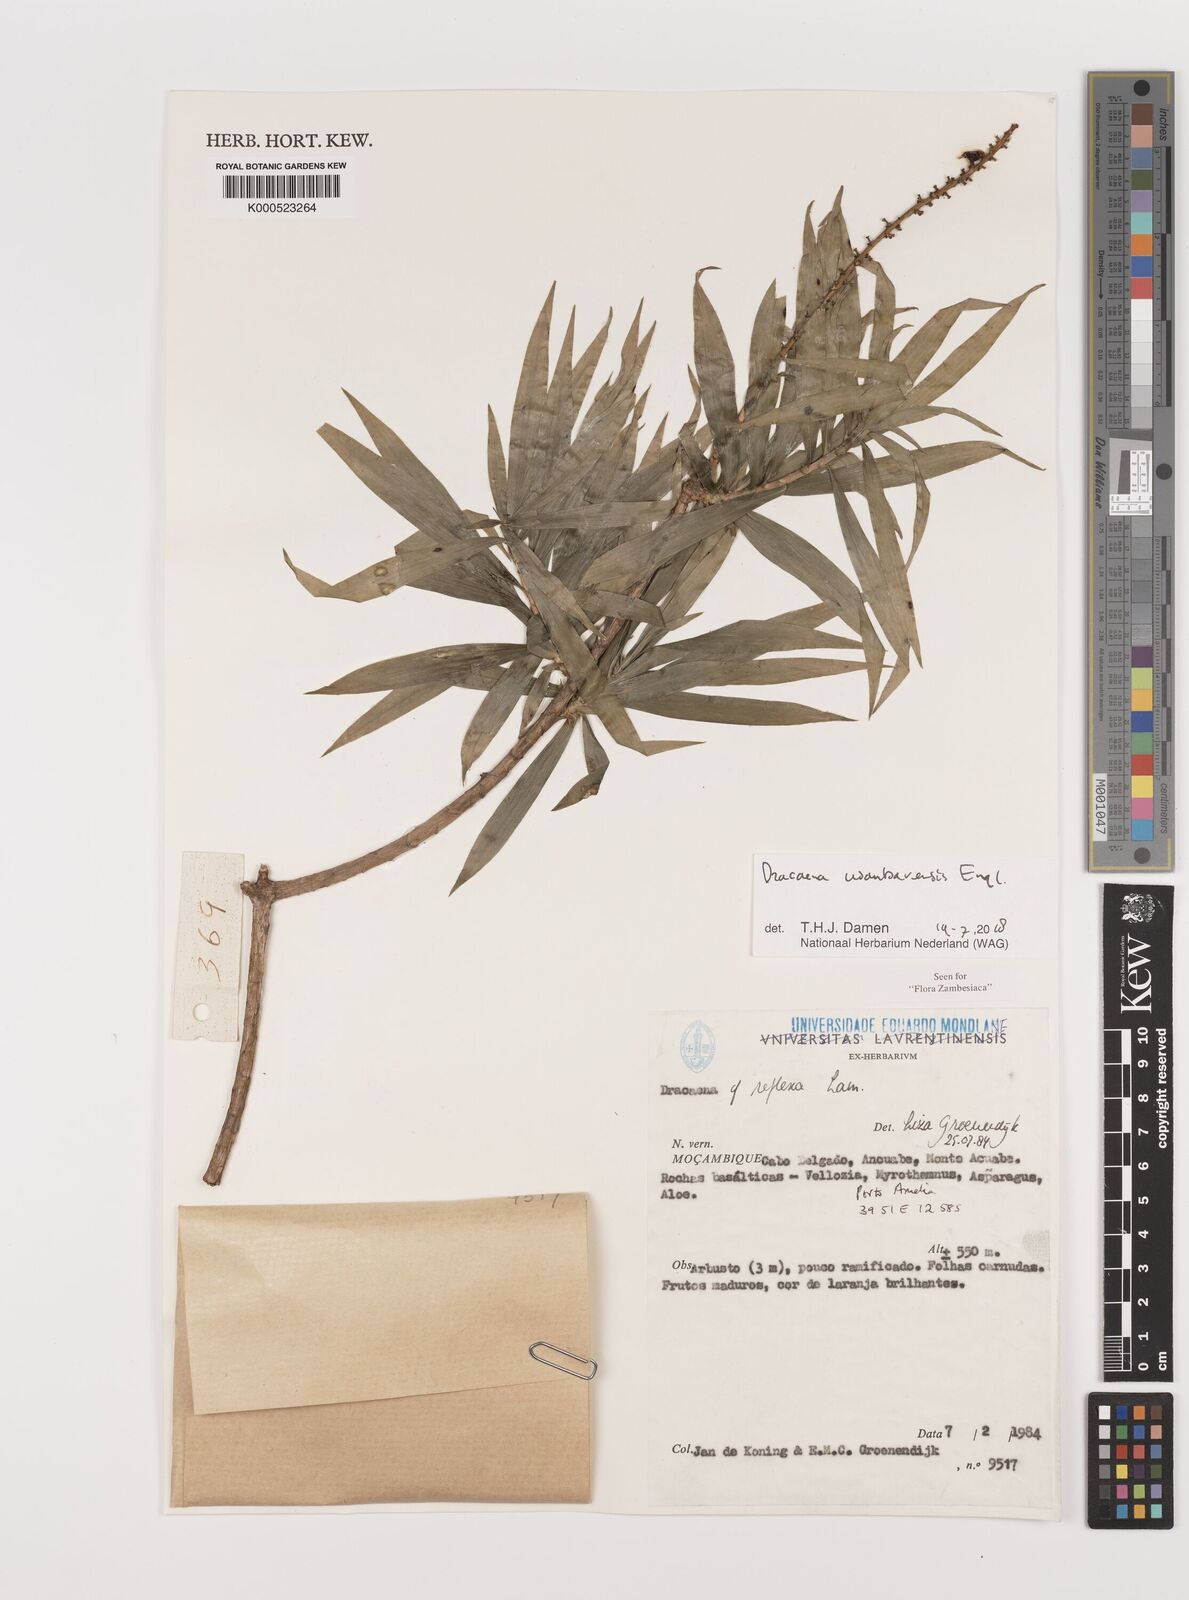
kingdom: Plantae
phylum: Tracheophyta
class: Liliopsida
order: Asparagales
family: Asparagaceae
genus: Dracaena
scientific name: Dracaena usambarensis
